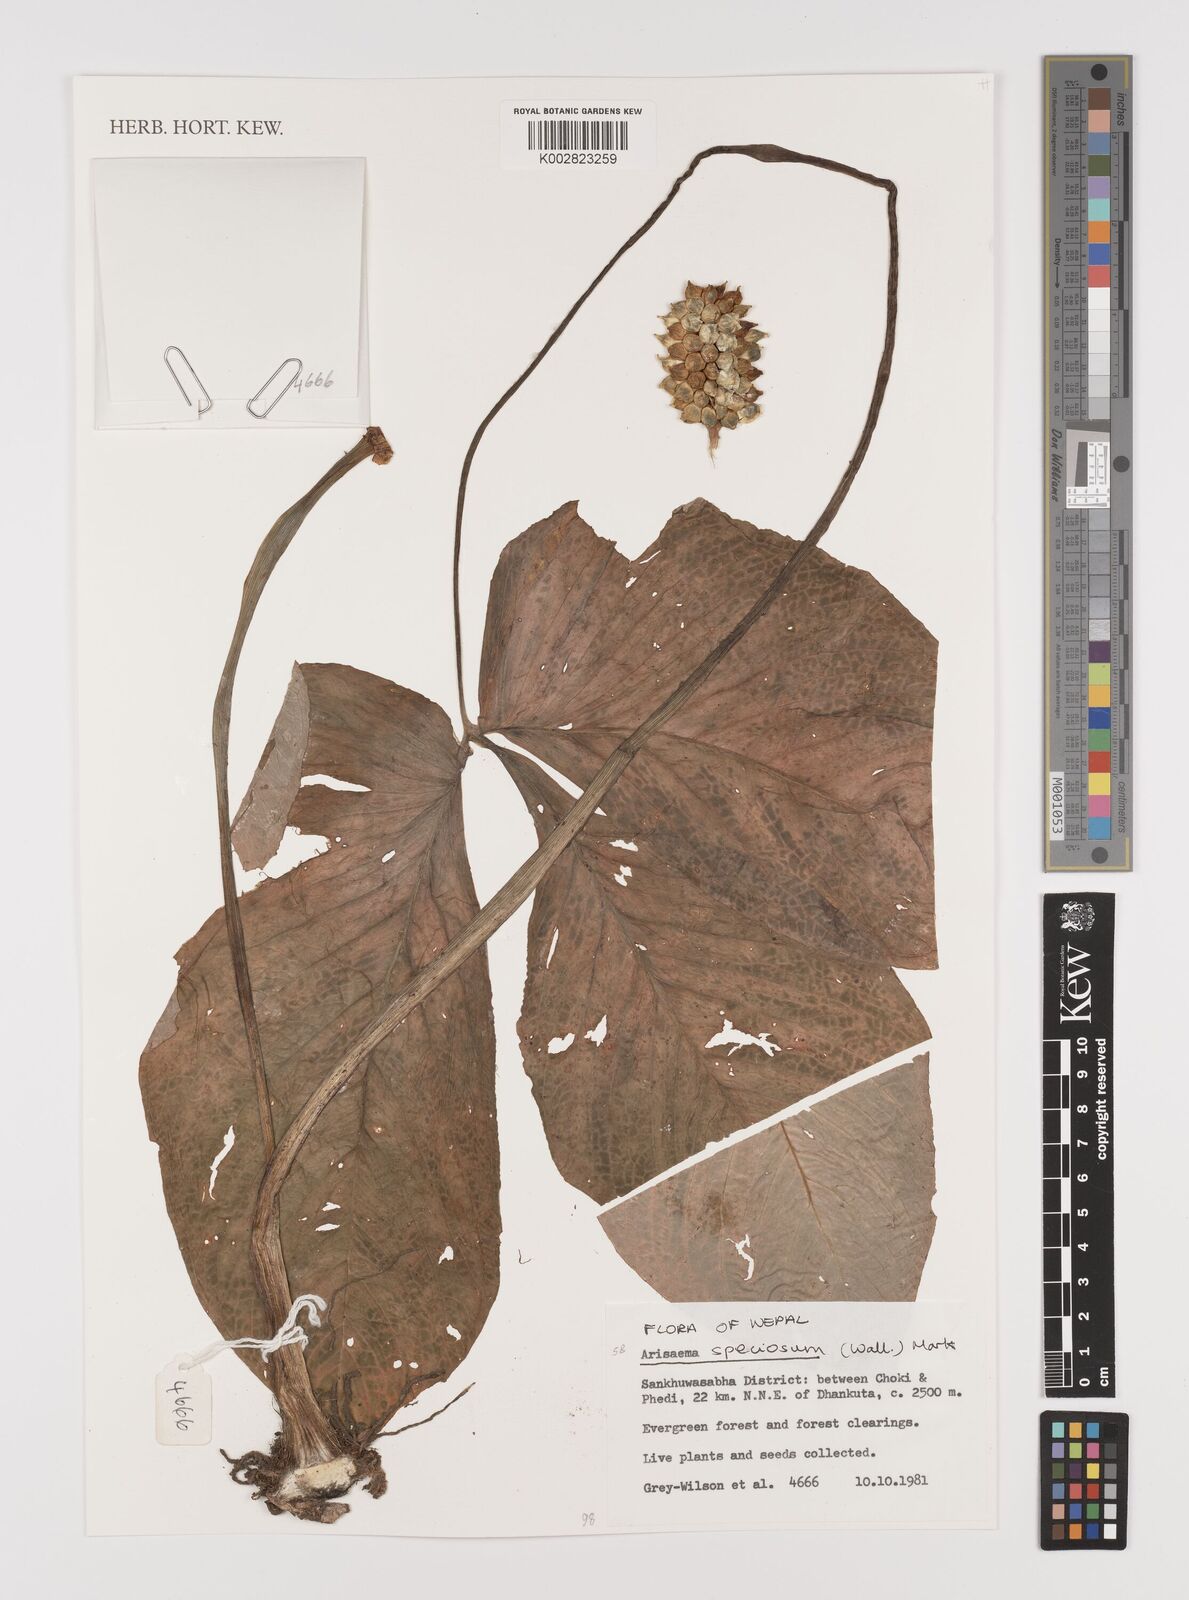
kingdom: Plantae
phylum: Tracheophyta
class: Liliopsida
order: Alismatales
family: Araceae
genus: Arisaema
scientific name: Arisaema speciosum
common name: Showy cobra-lily
